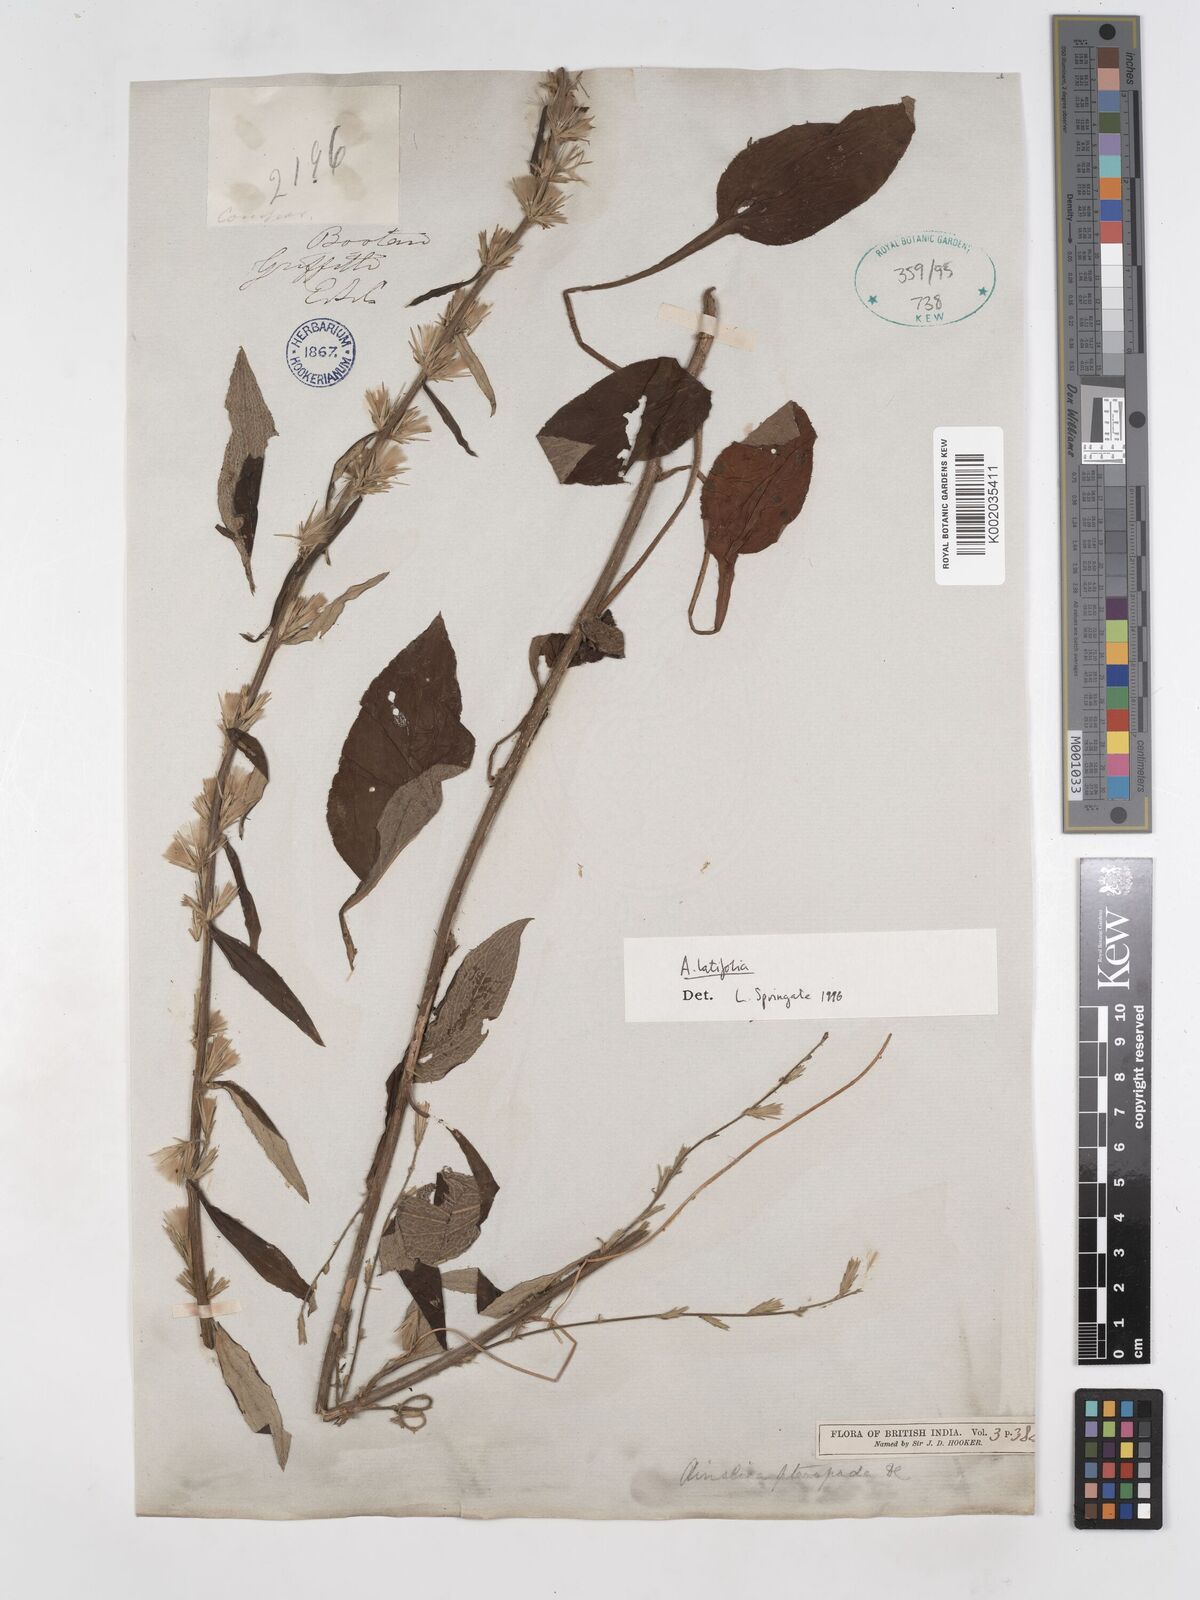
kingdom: Plantae
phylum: Tracheophyta
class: Magnoliopsida
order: Asterales
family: Asteraceae
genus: Ainsliaea
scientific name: Ainsliaea latifolia
